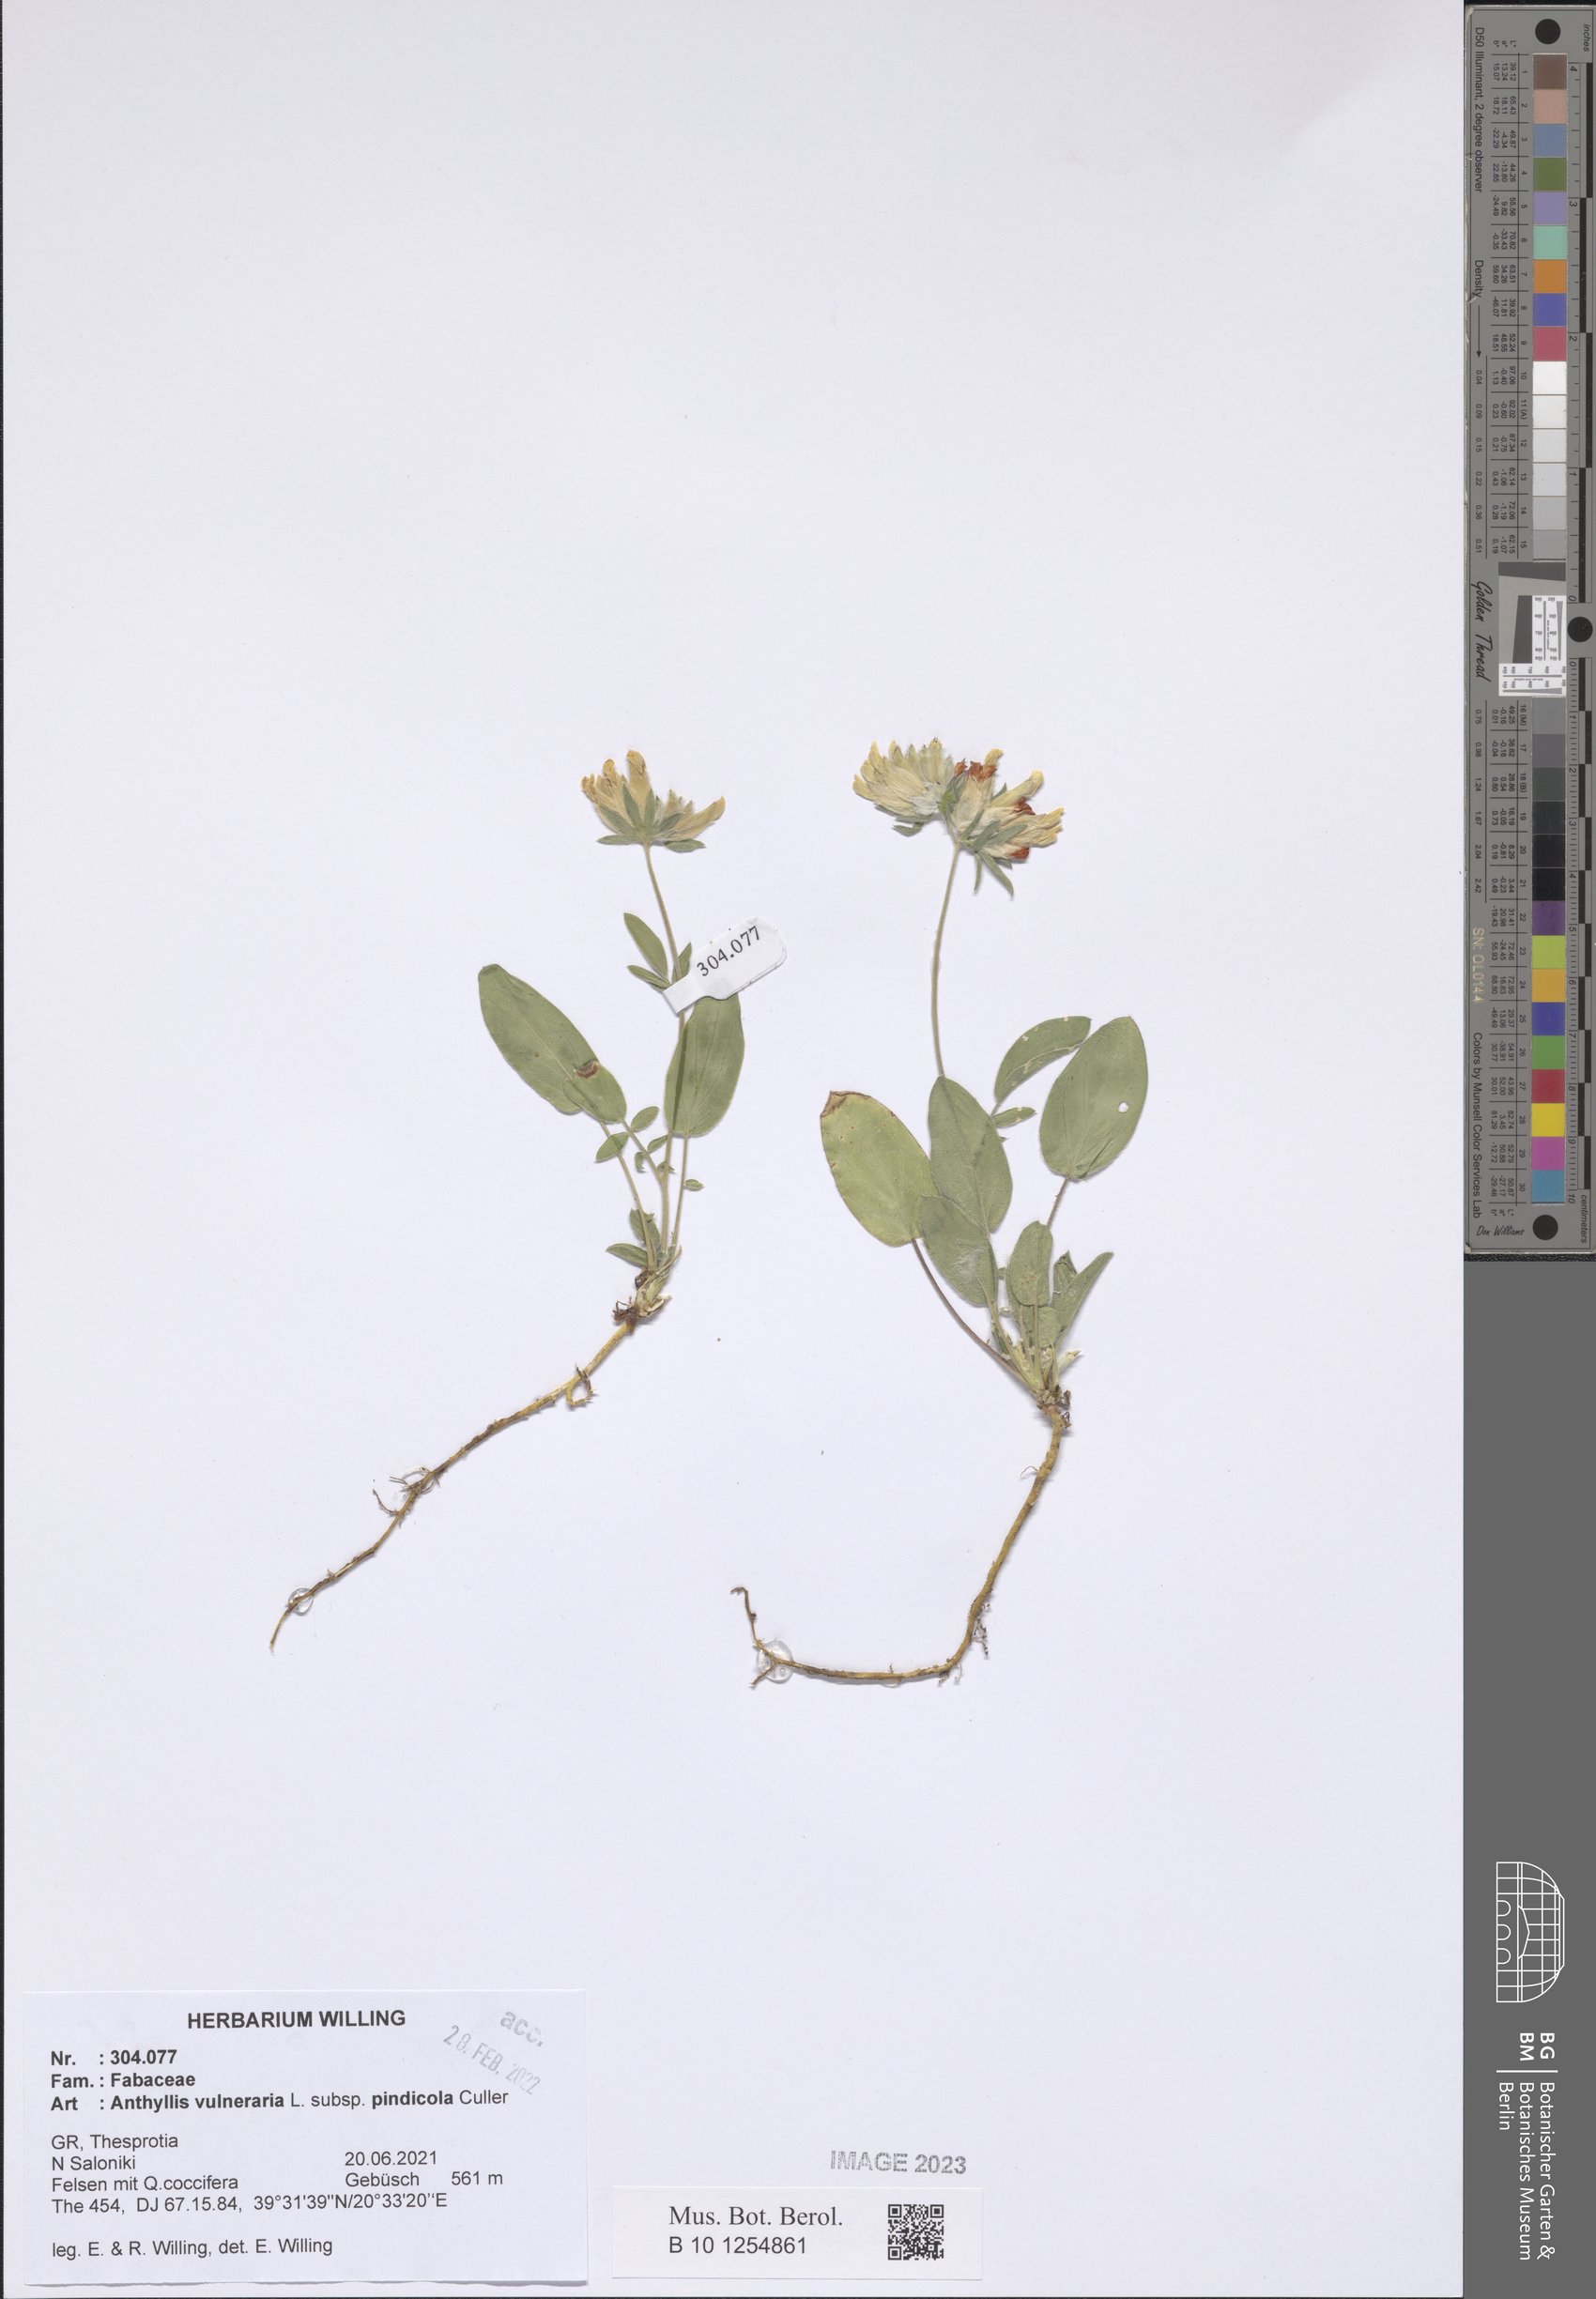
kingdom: Plantae
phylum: Tracheophyta
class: Magnoliopsida
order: Fabales
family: Fabaceae
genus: Anthyllis
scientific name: Anthyllis vulneraria
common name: Kidney vetch
